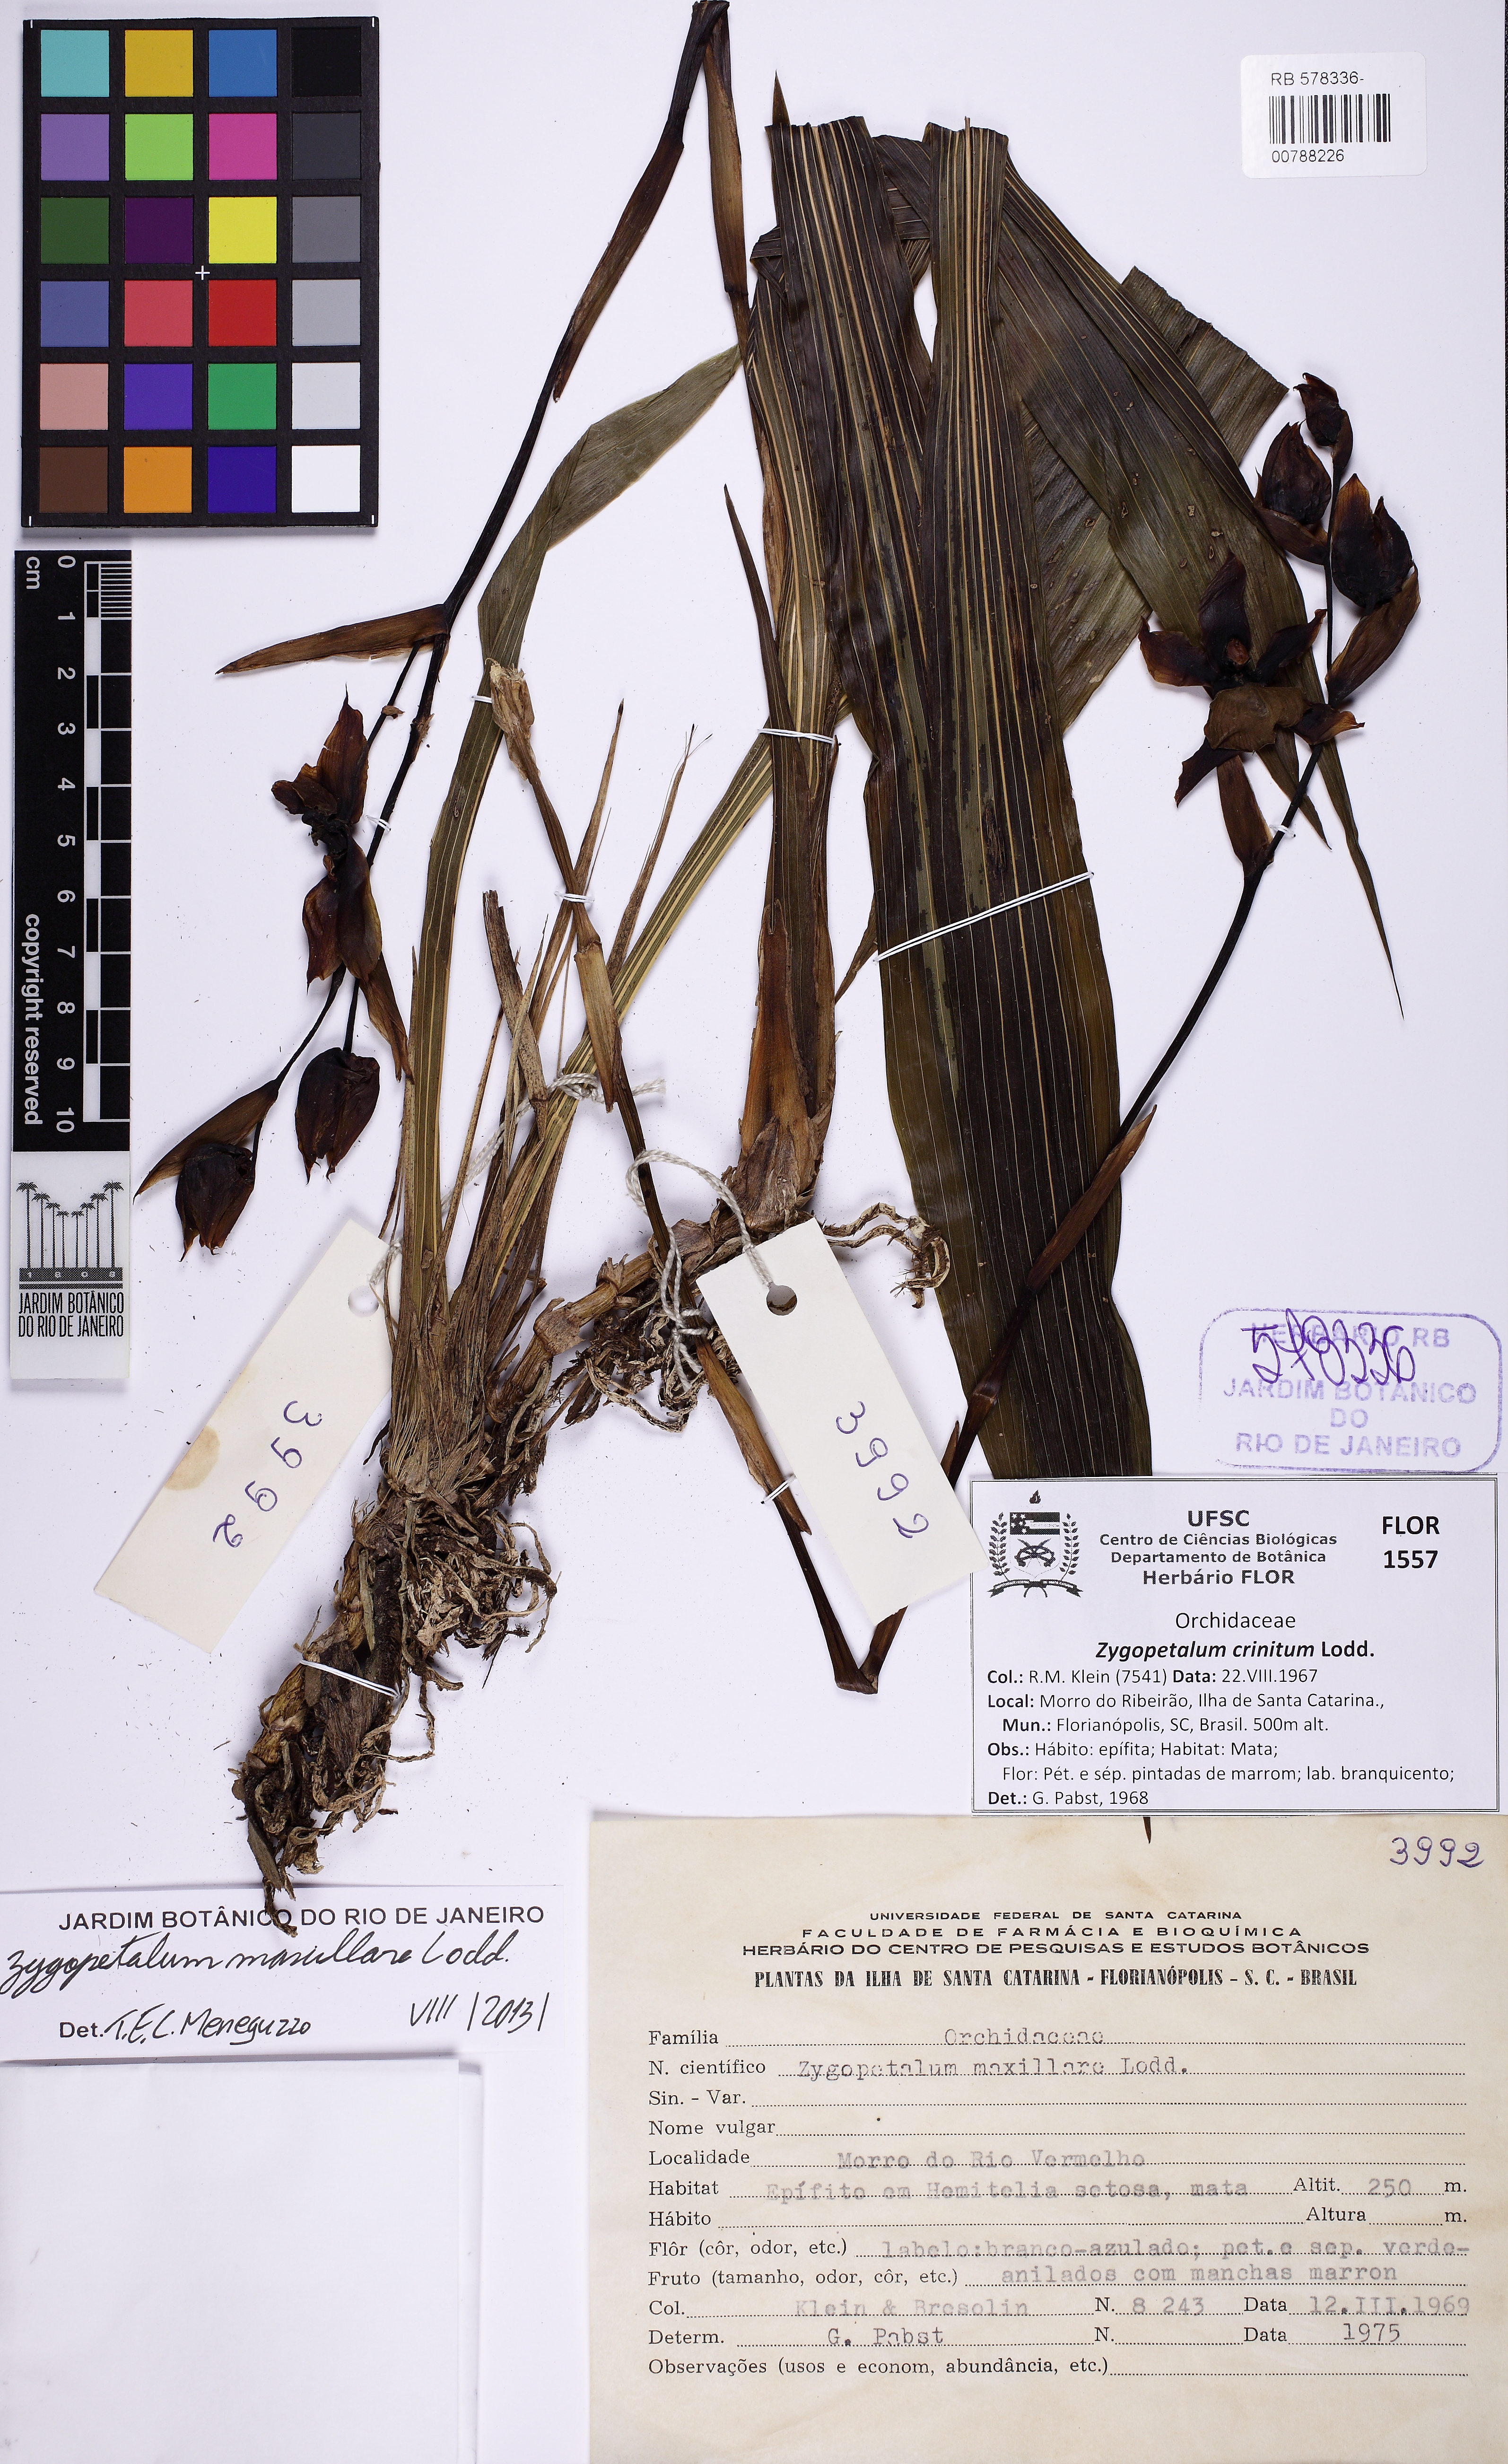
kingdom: Plantae
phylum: Tracheophyta
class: Liliopsida
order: Asparagales
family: Orchidaceae
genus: Zygopetalum
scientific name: Zygopetalum maxillare
